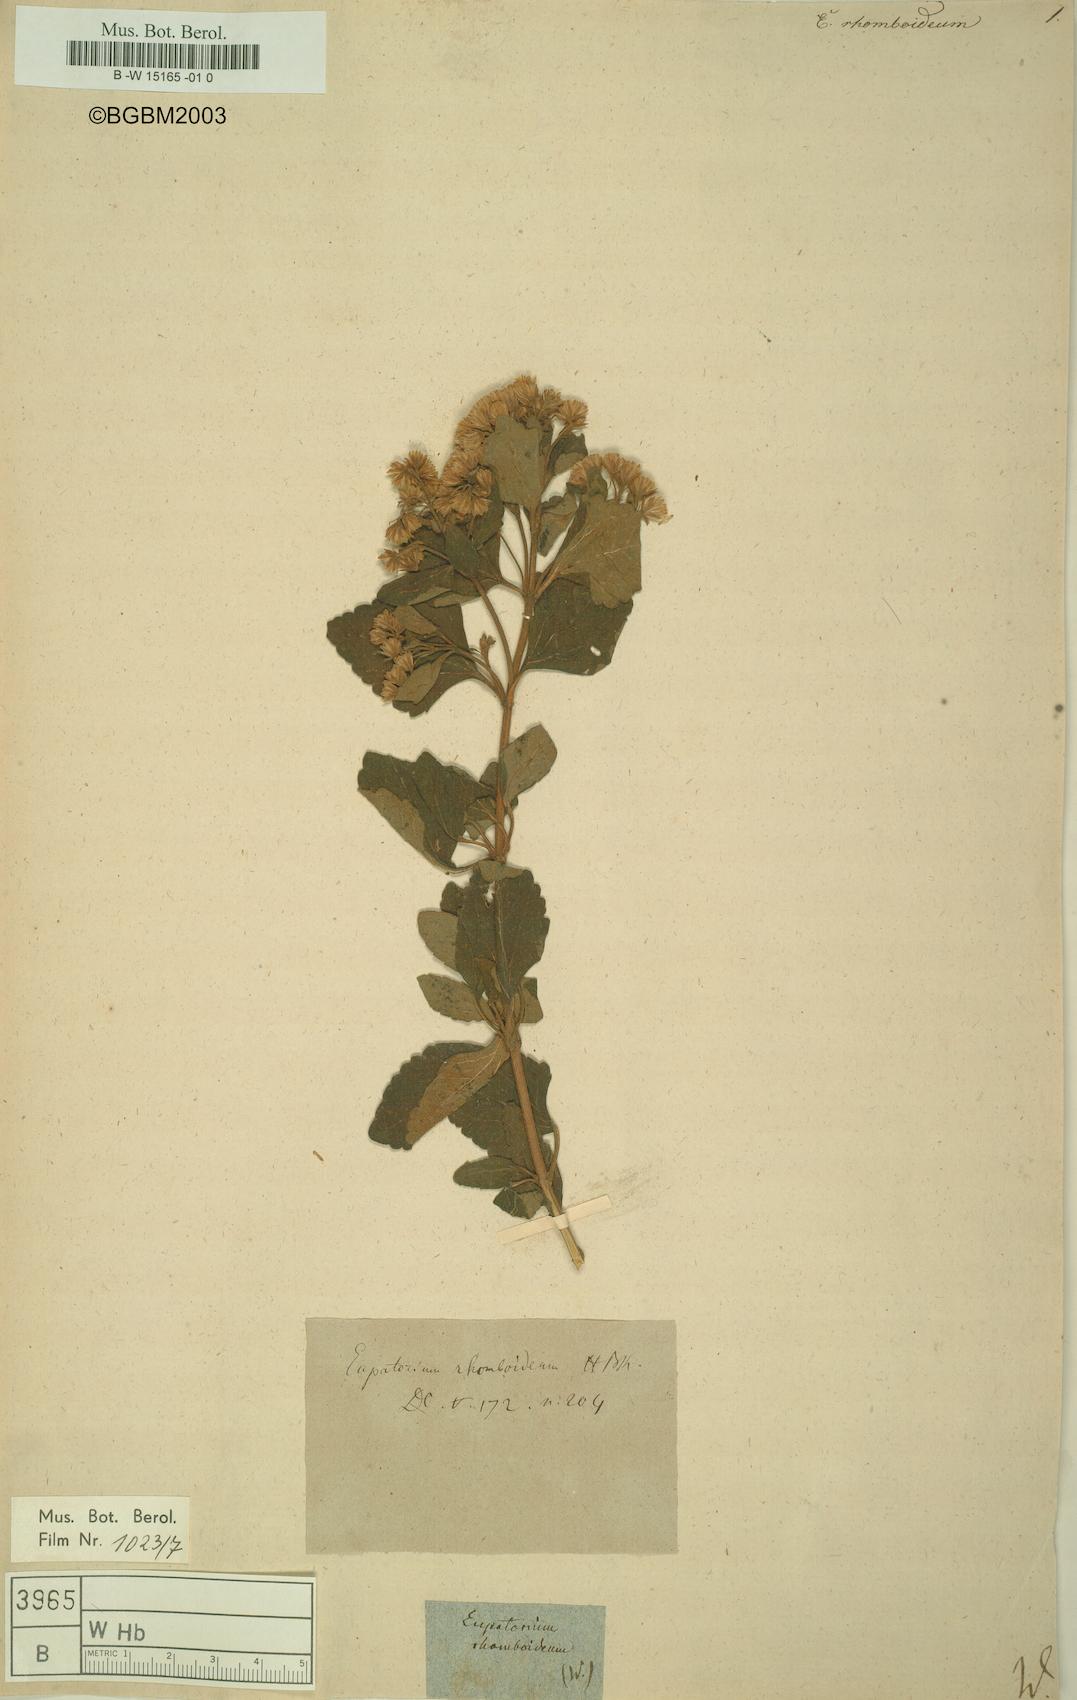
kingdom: Plantae
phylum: Tracheophyta
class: Magnoliopsida
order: Asterales
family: Asteraceae
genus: Ageratina
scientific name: Ageratina rhomboidea
